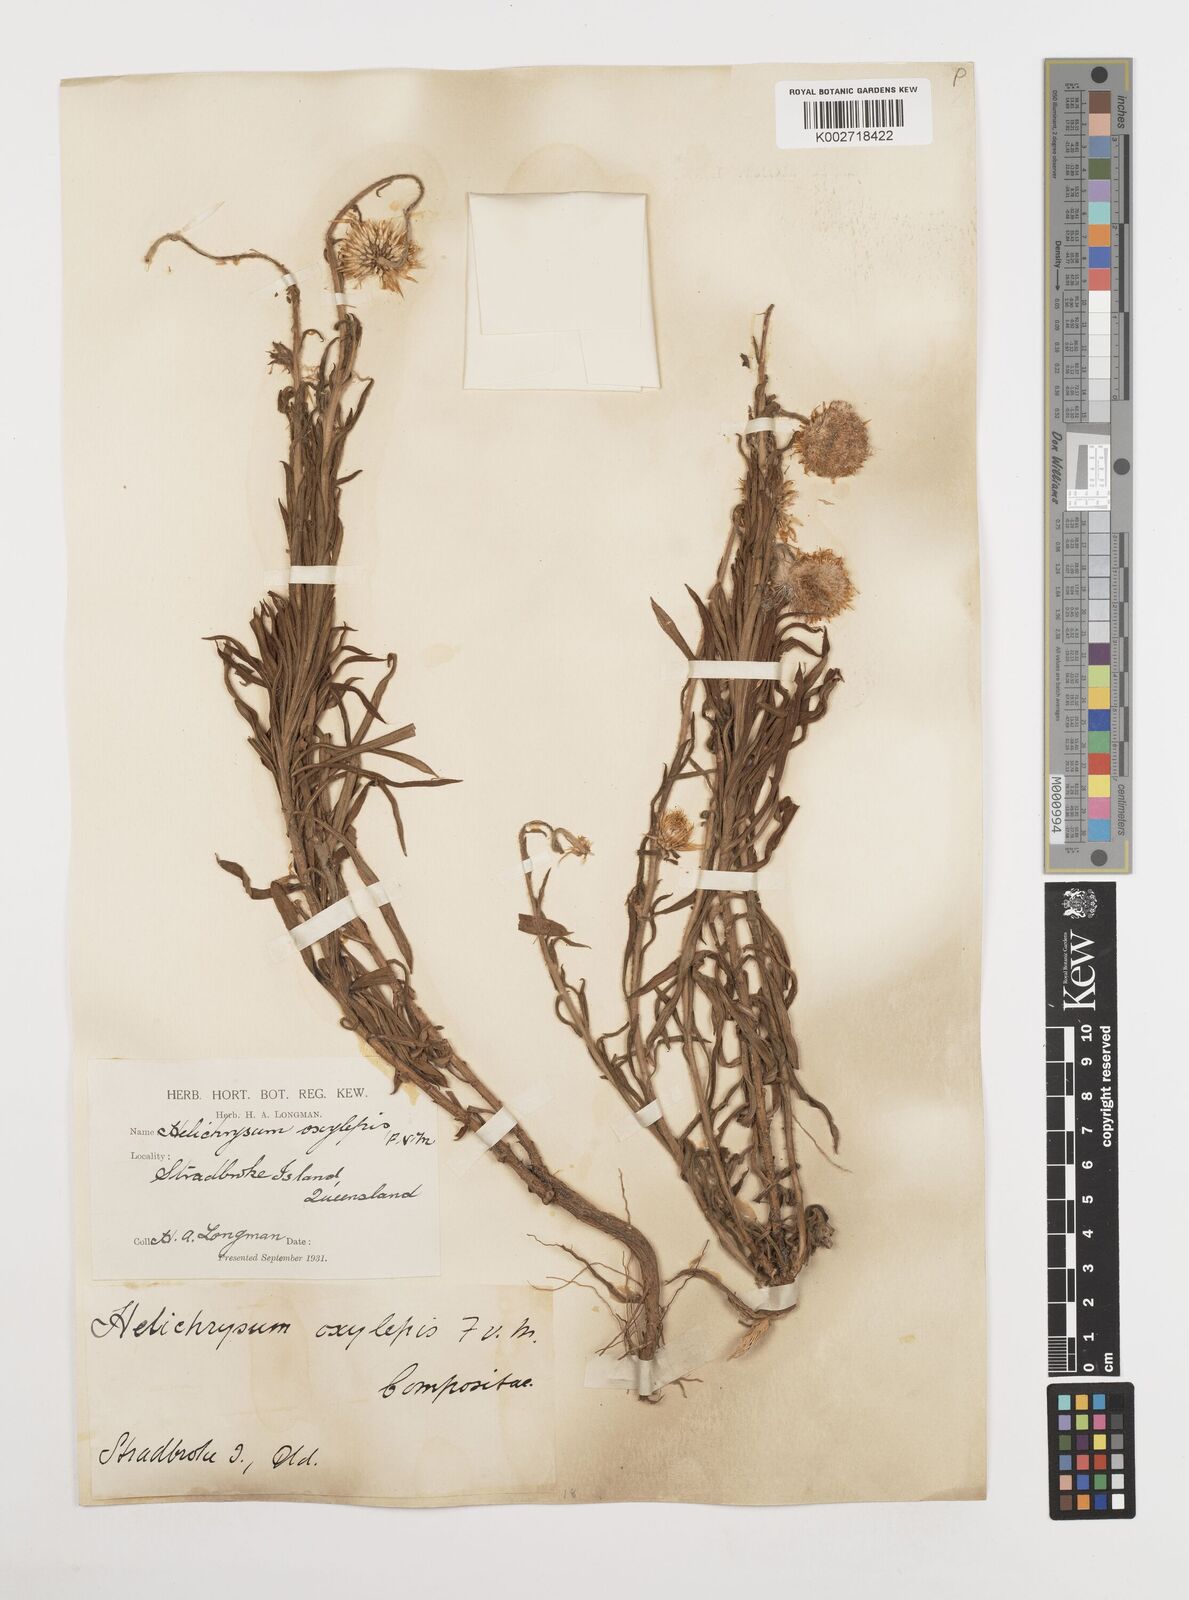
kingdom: Plantae
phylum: Tracheophyta
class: Magnoliopsida
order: Asterales
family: Asteraceae
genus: Coronidium
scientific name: Coronidium oxylepis
